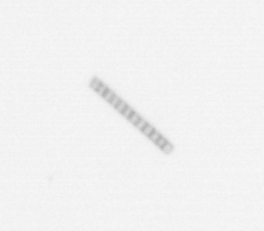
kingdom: Chromista
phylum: Ochrophyta
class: Bacillariophyceae
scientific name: Bacillariophyceae
